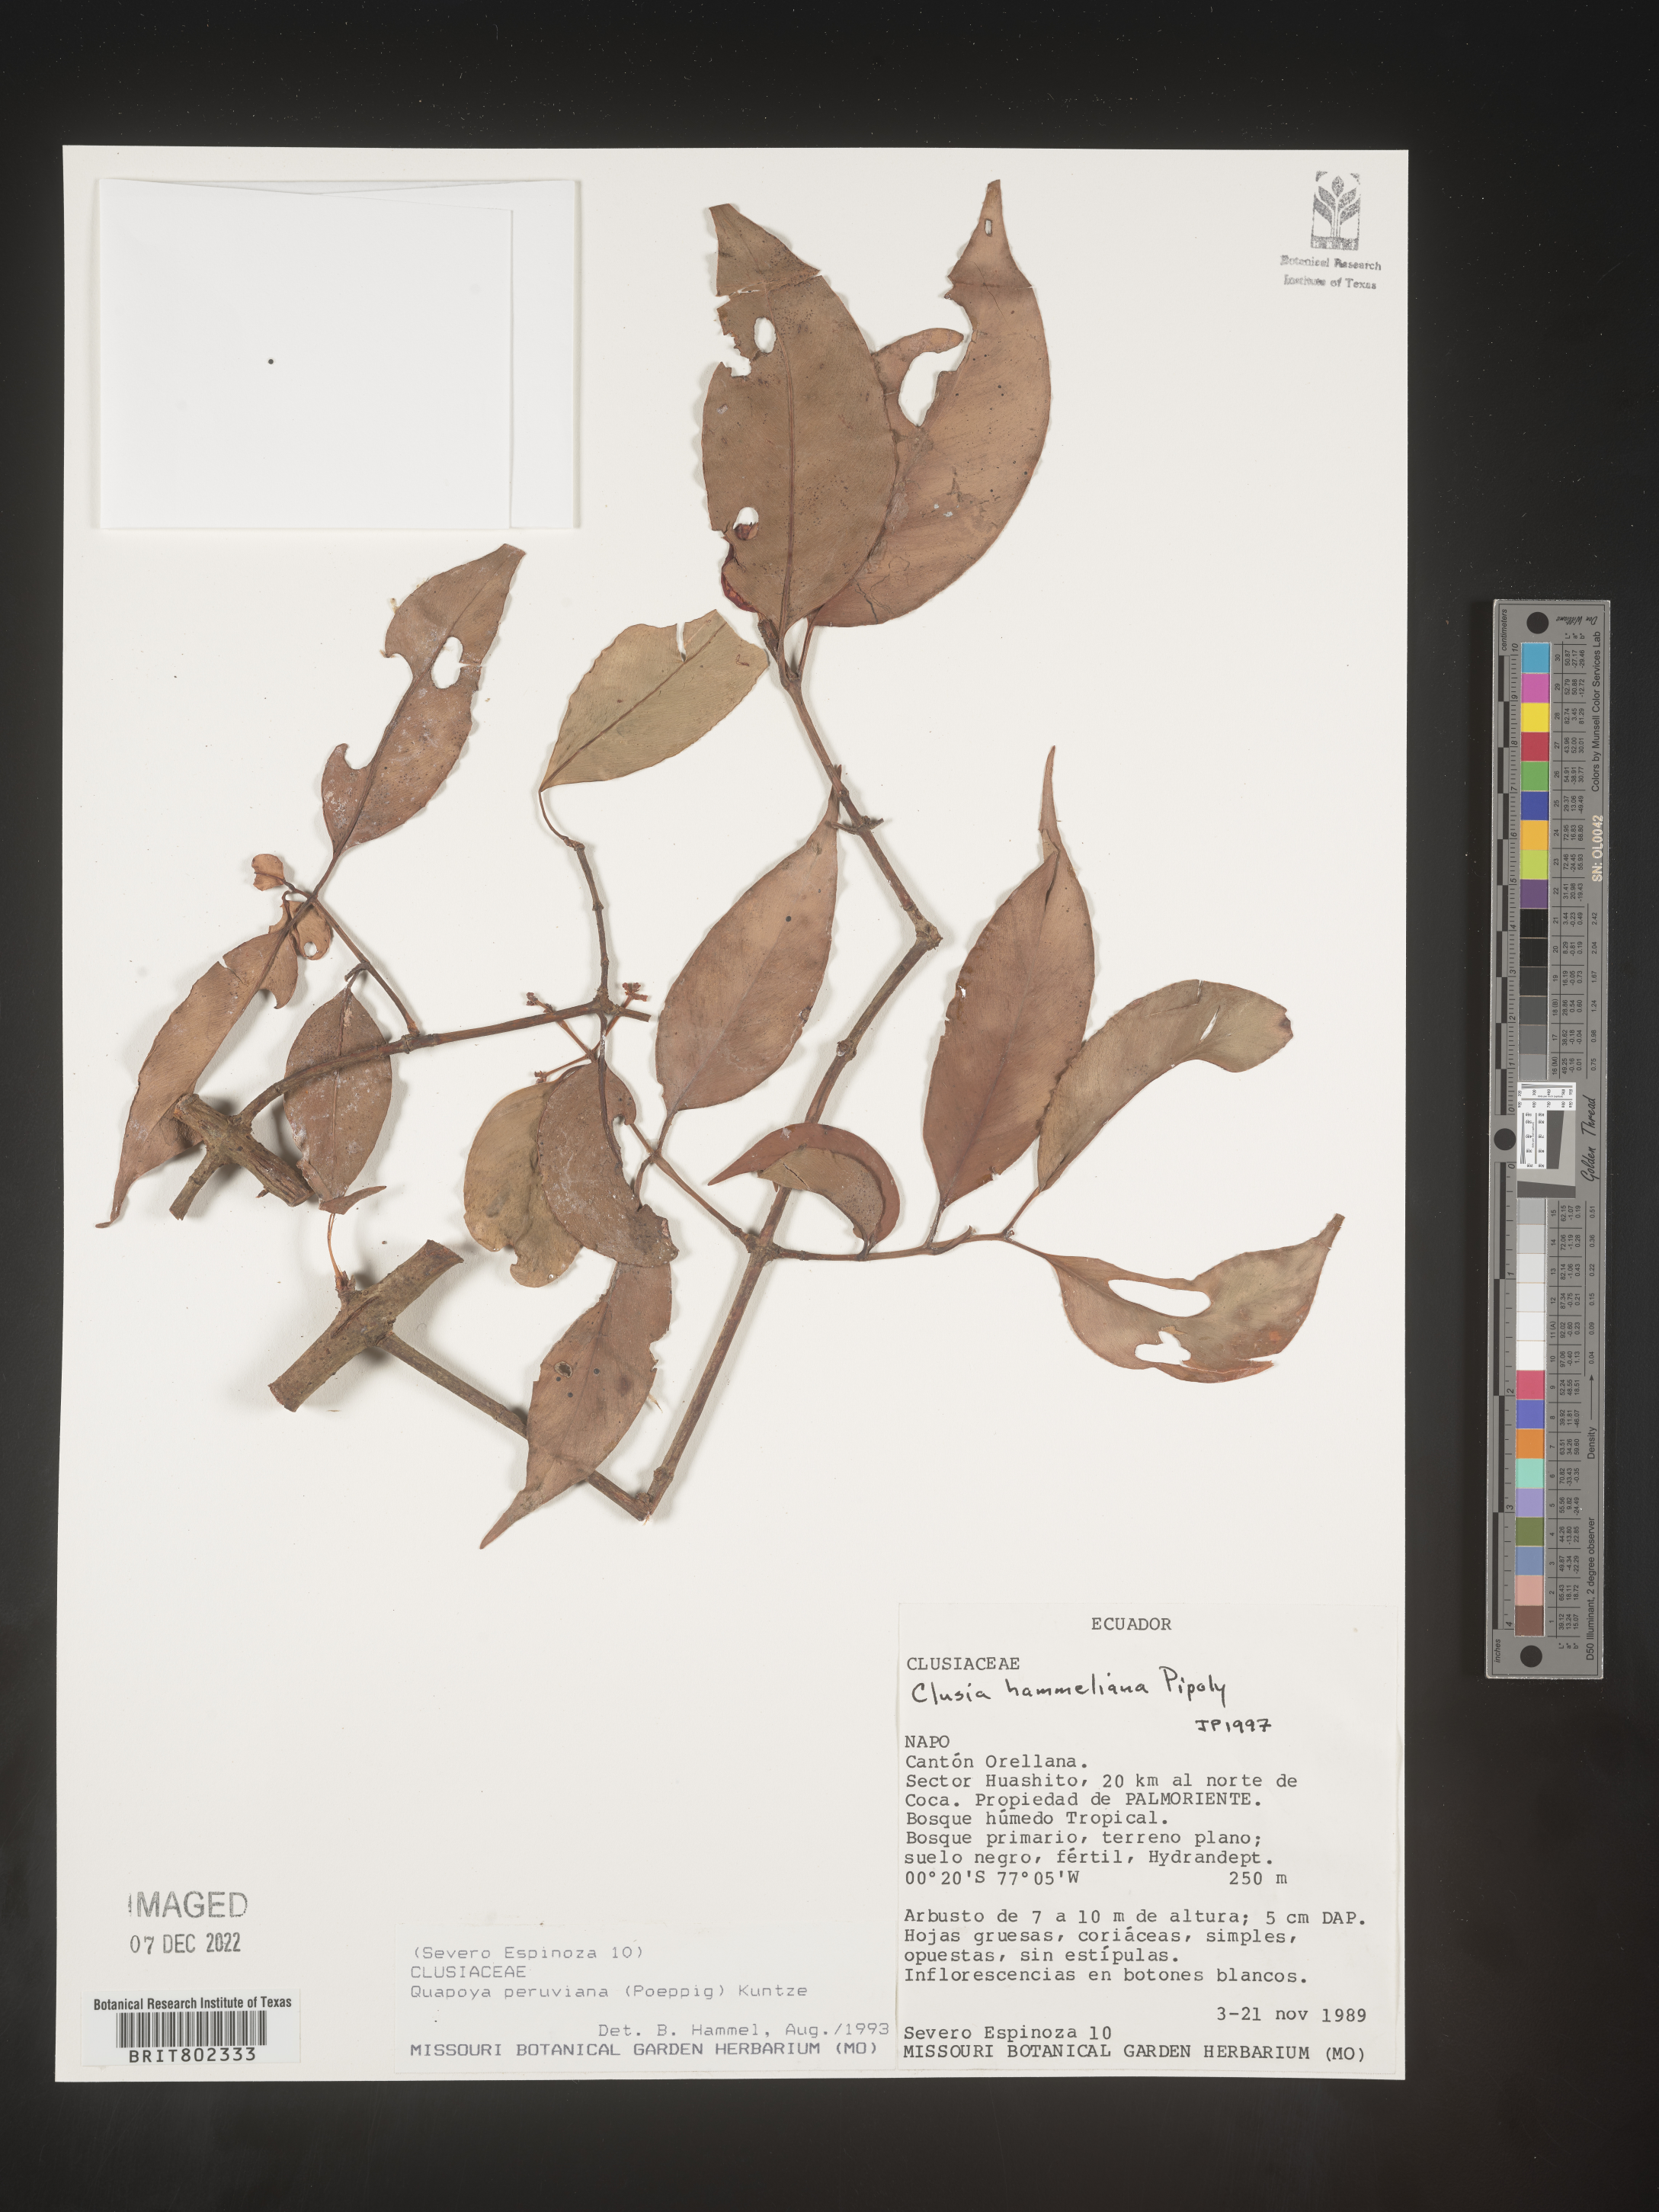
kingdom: Plantae
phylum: Tracheophyta
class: Magnoliopsida
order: Malpighiales
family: Clusiaceae
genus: Clusia
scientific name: Clusia hammeliana
